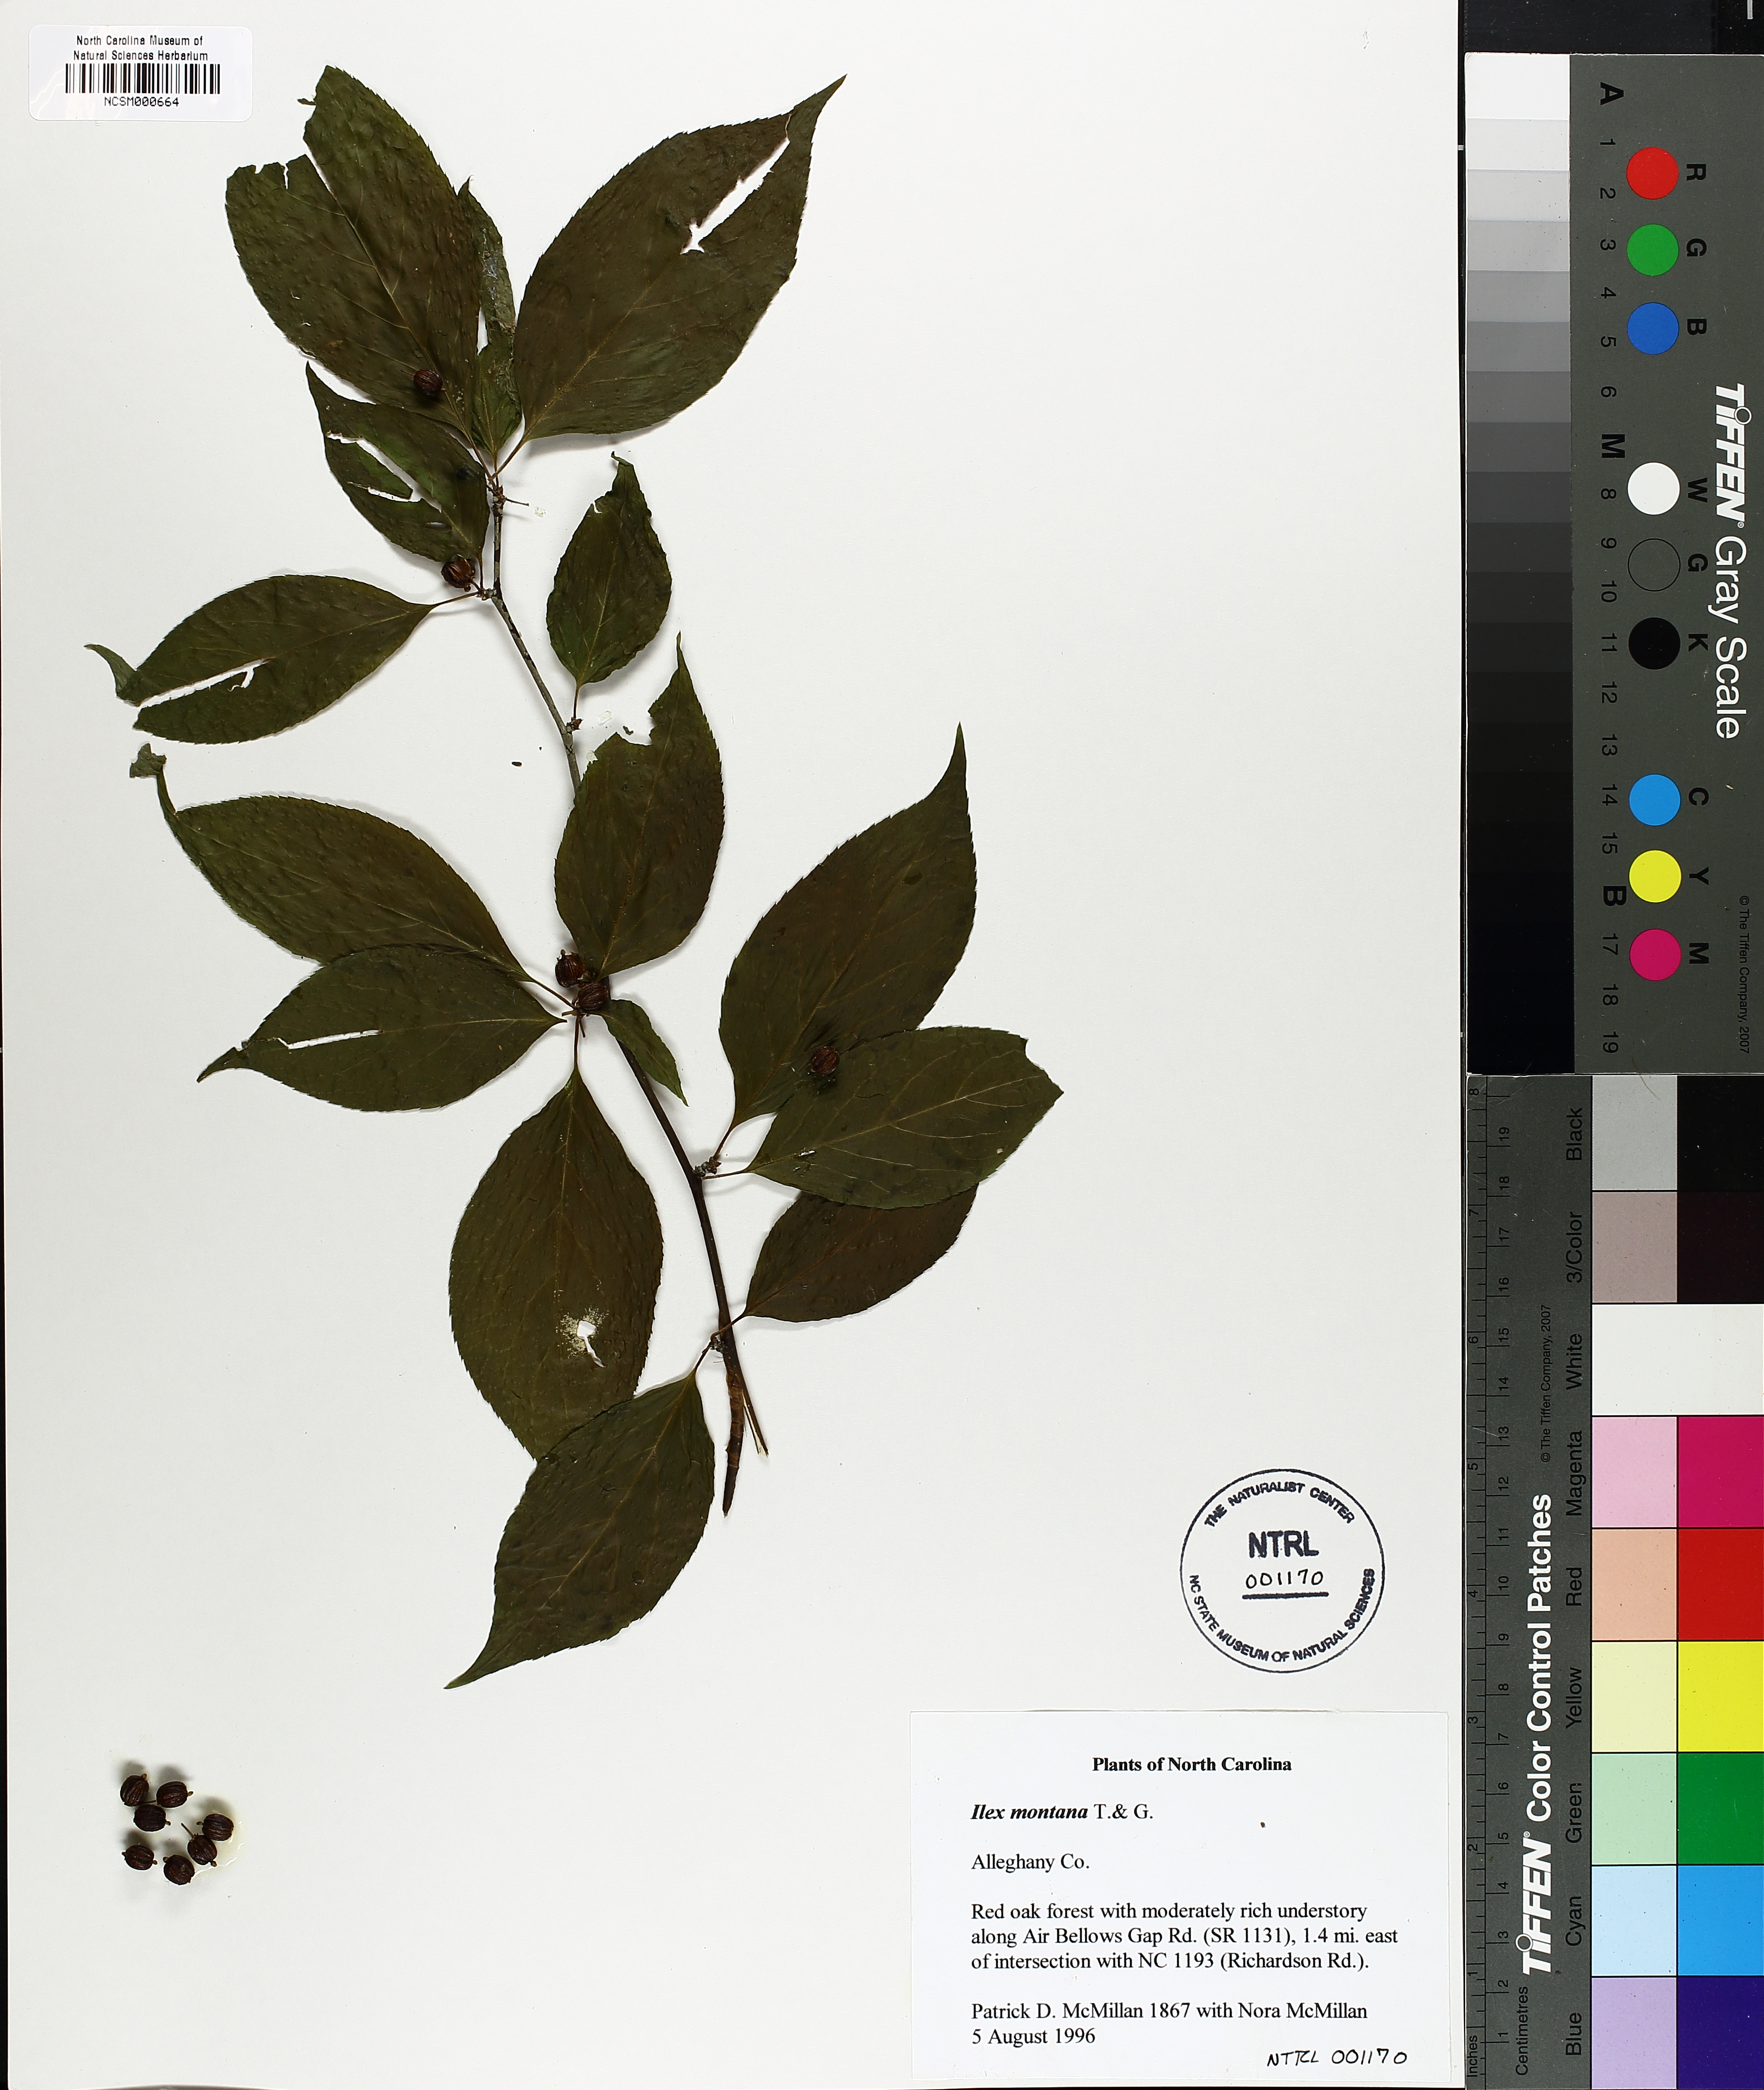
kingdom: Plantae
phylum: Tracheophyta
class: Magnoliopsida
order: Aquifoliales
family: Aquifoliaceae
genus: Ilex
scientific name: Ilex montana
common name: Mountain winterberry
